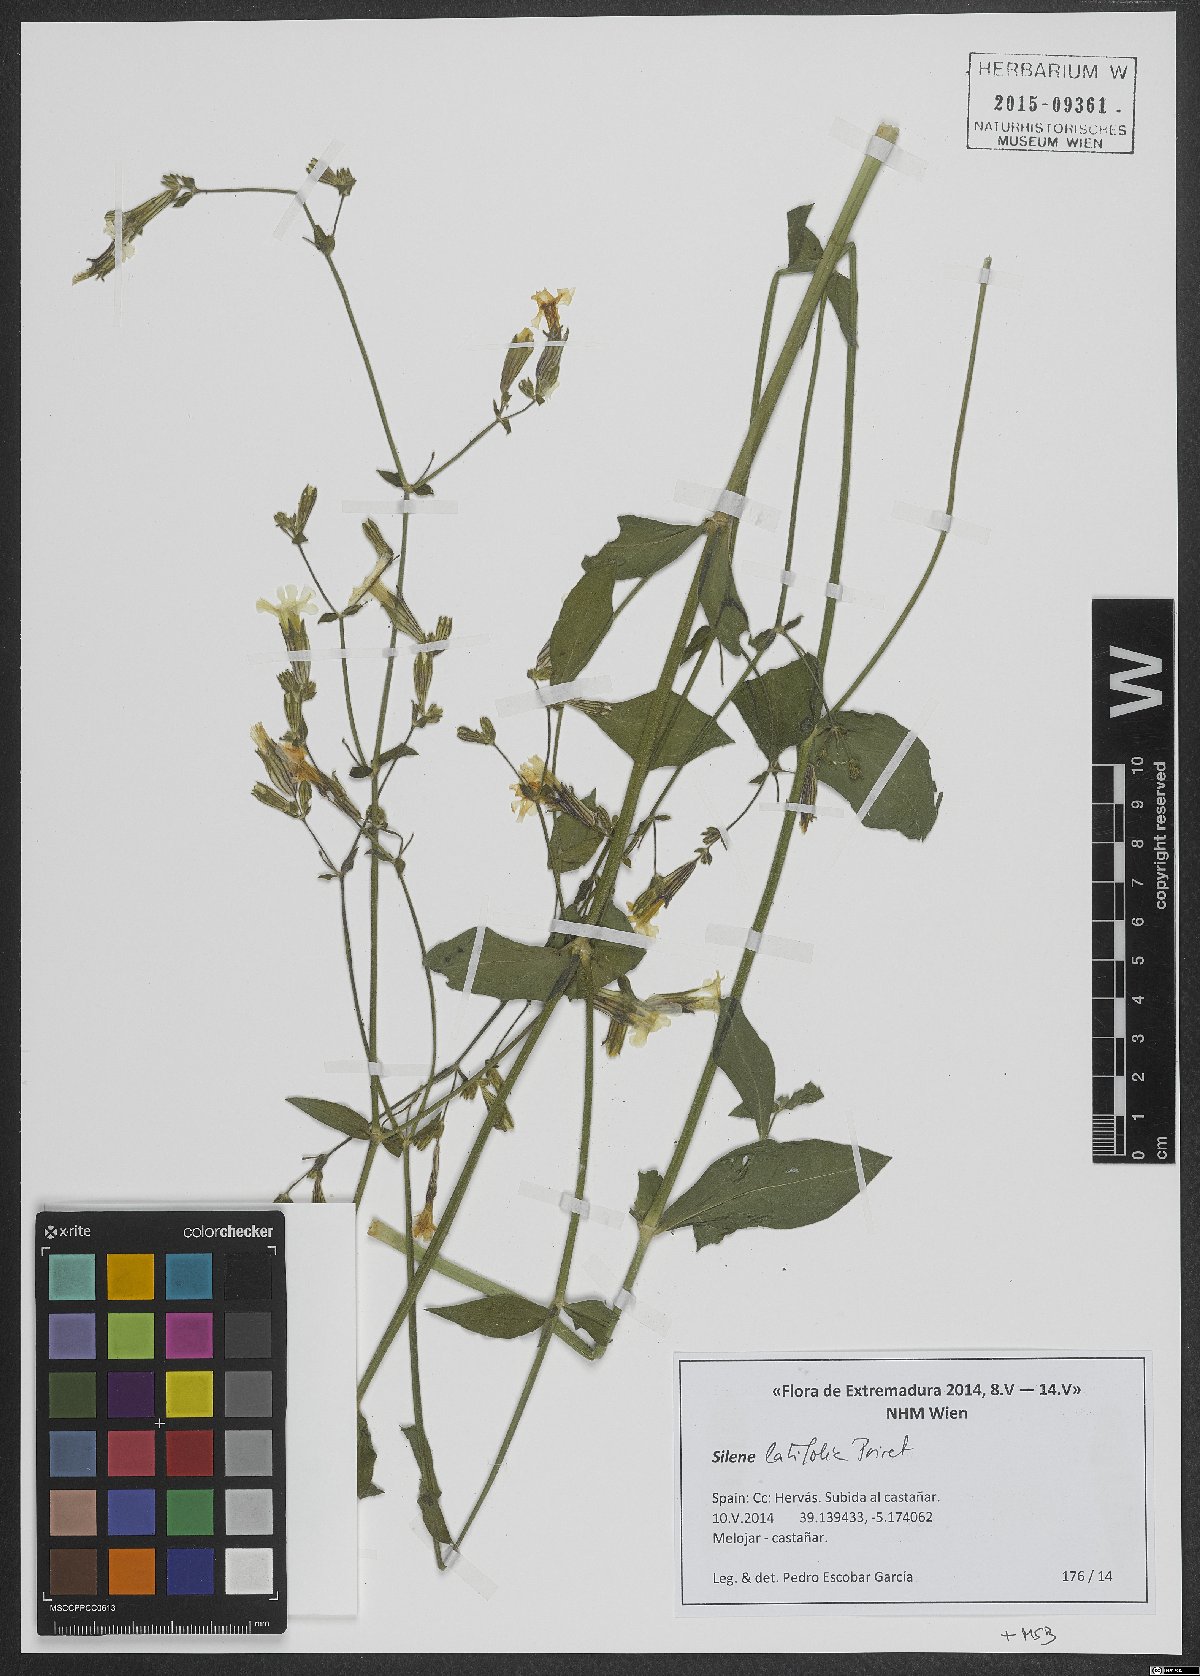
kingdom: Plantae
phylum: Tracheophyta
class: Magnoliopsida
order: Caryophyllales
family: Caryophyllaceae
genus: Silene
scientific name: Silene latifolia
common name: White campion
